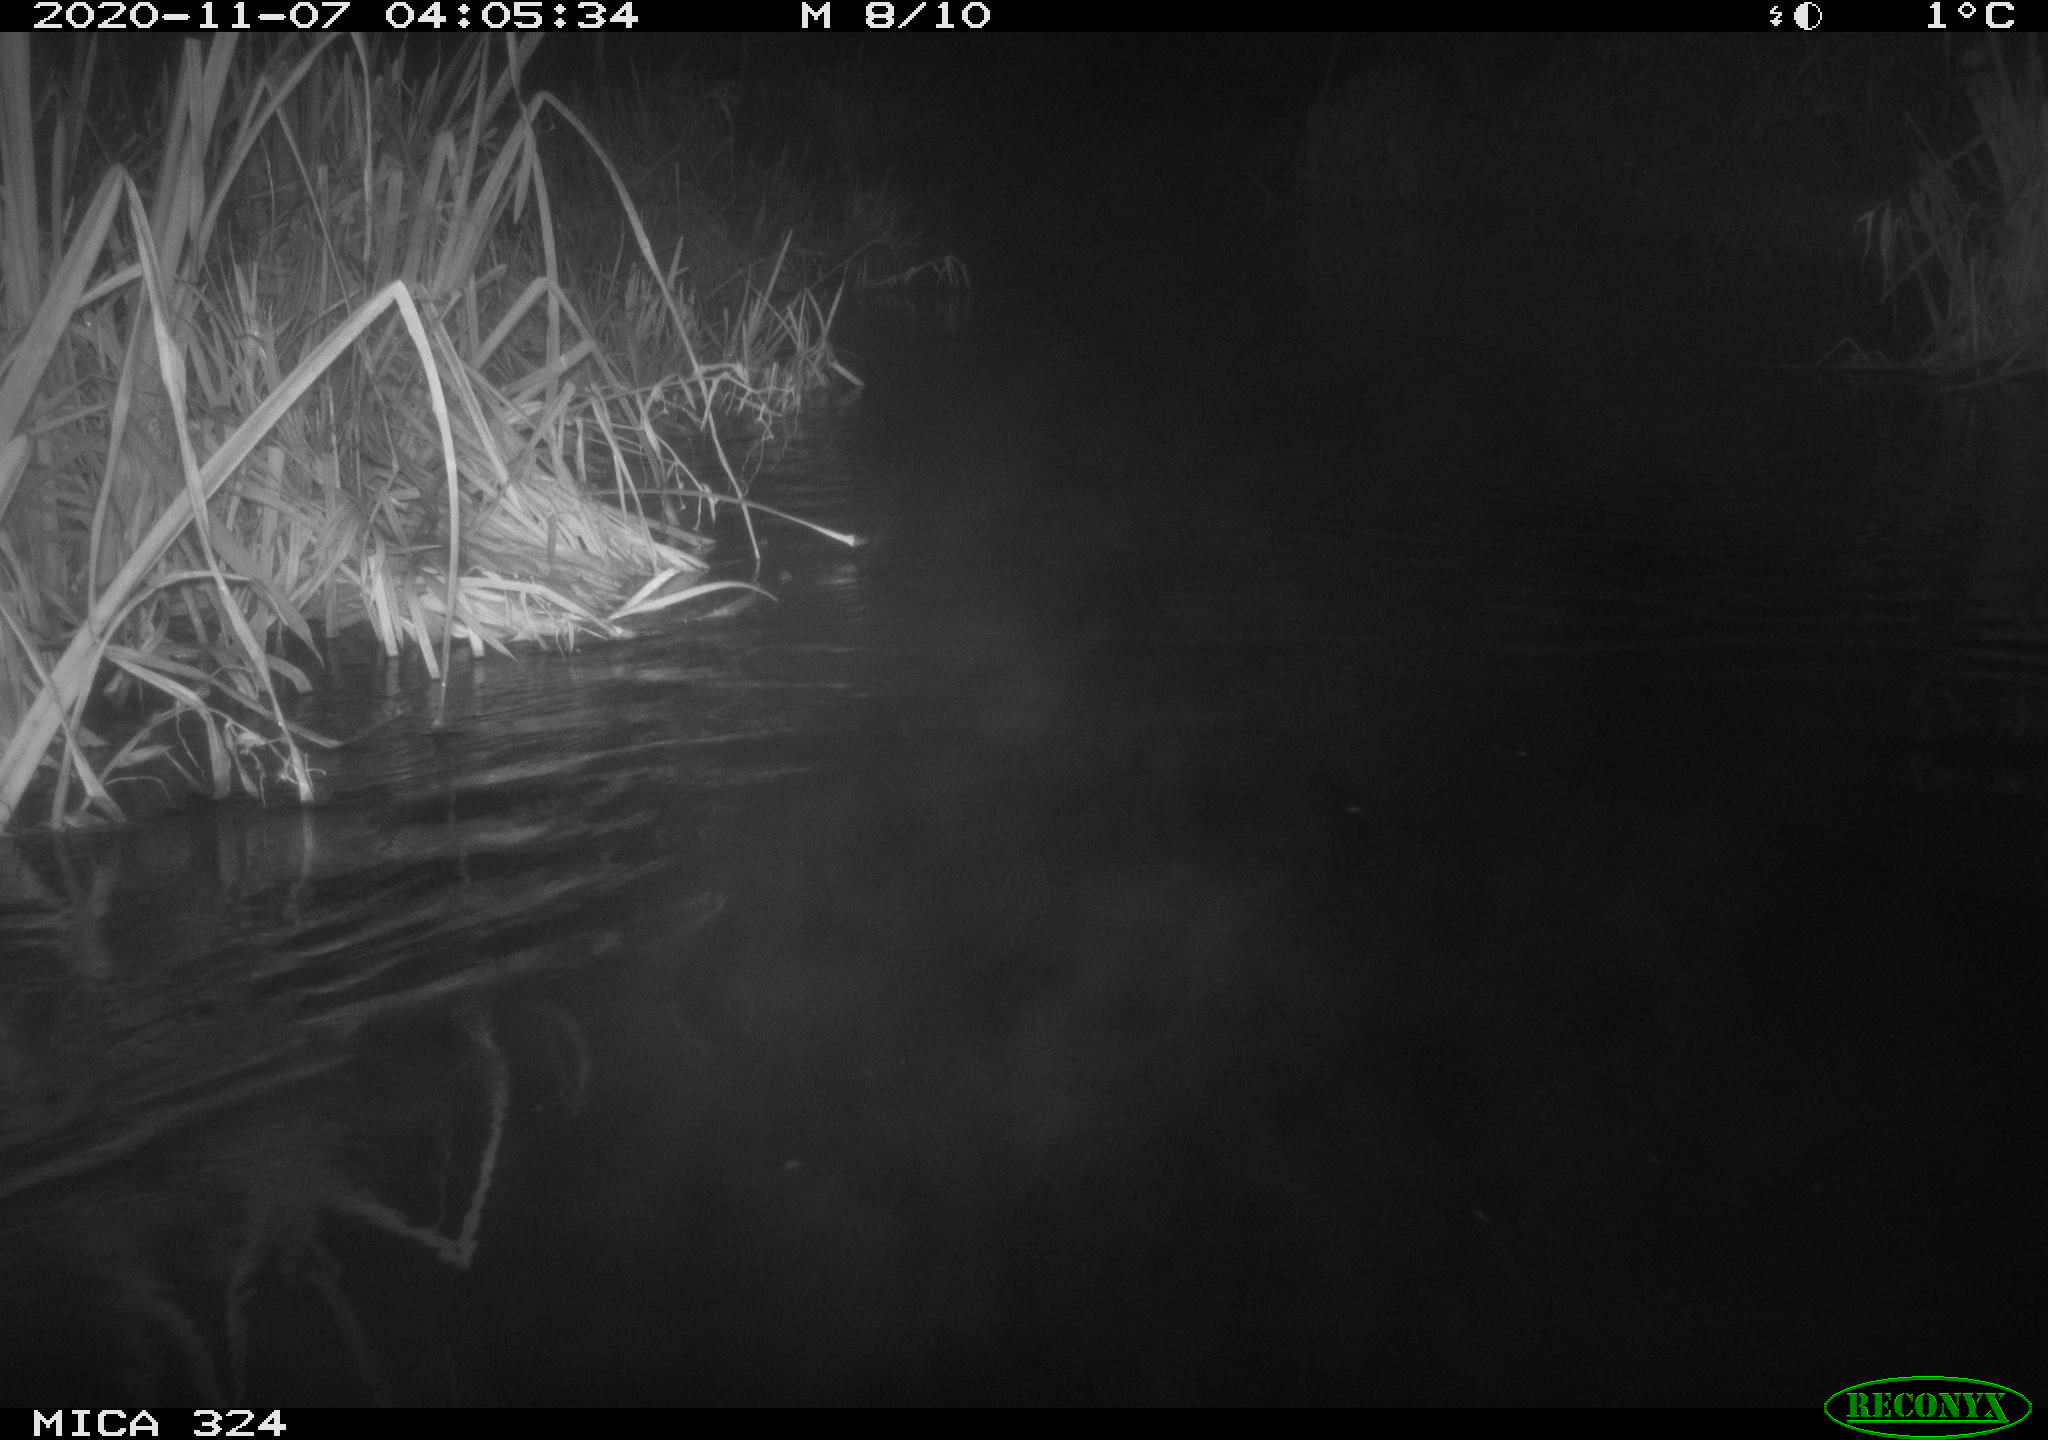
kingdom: Animalia
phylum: Chordata
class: Mammalia
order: Rodentia
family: Cricetidae
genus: Ondatra
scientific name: Ondatra zibethicus
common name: Muskrat
